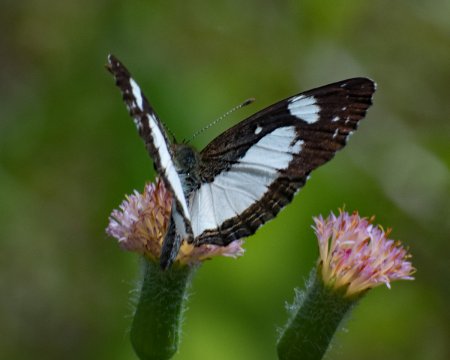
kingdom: Animalia
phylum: Arthropoda
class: Insecta
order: Lepidoptera
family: Nymphalidae
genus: Janatella
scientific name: Janatella leucodesma
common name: Whitened Crescent
